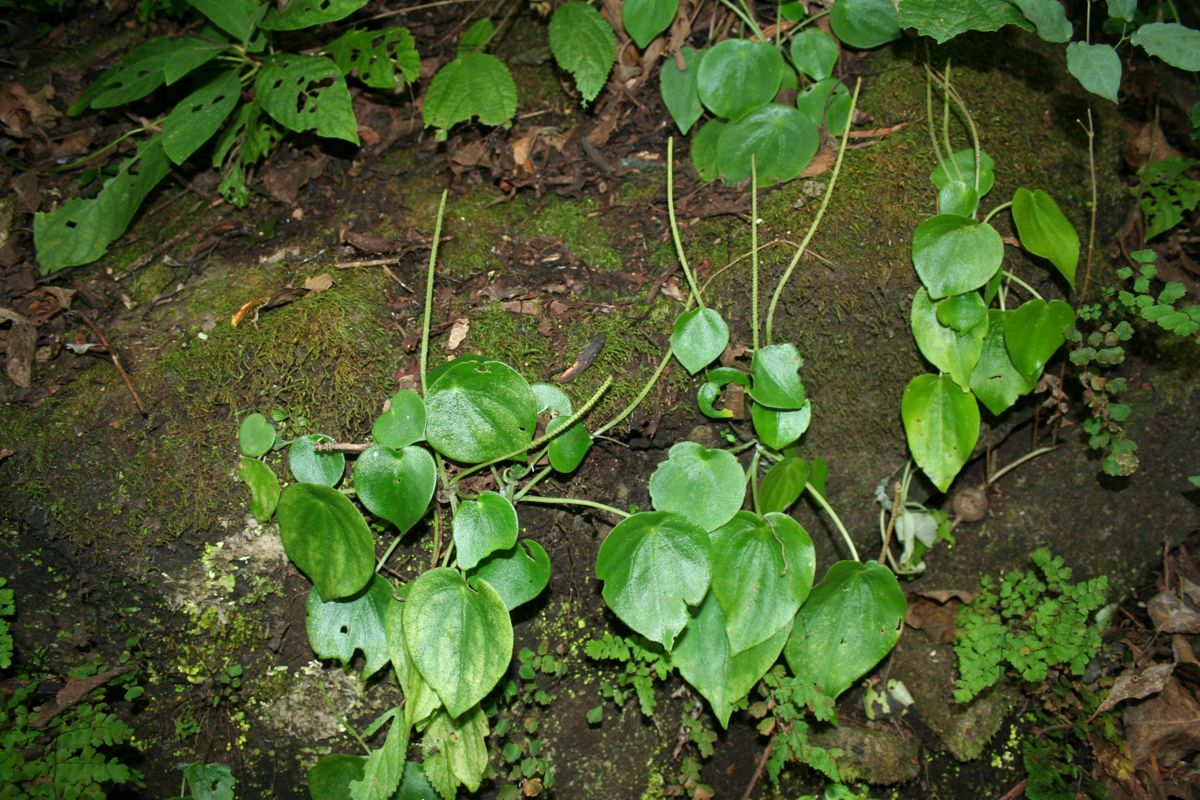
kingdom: Plantae
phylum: Tracheophyta
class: Magnoliopsida
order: Piperales
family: Piperaceae
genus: Peperomia
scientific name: Peperomia
